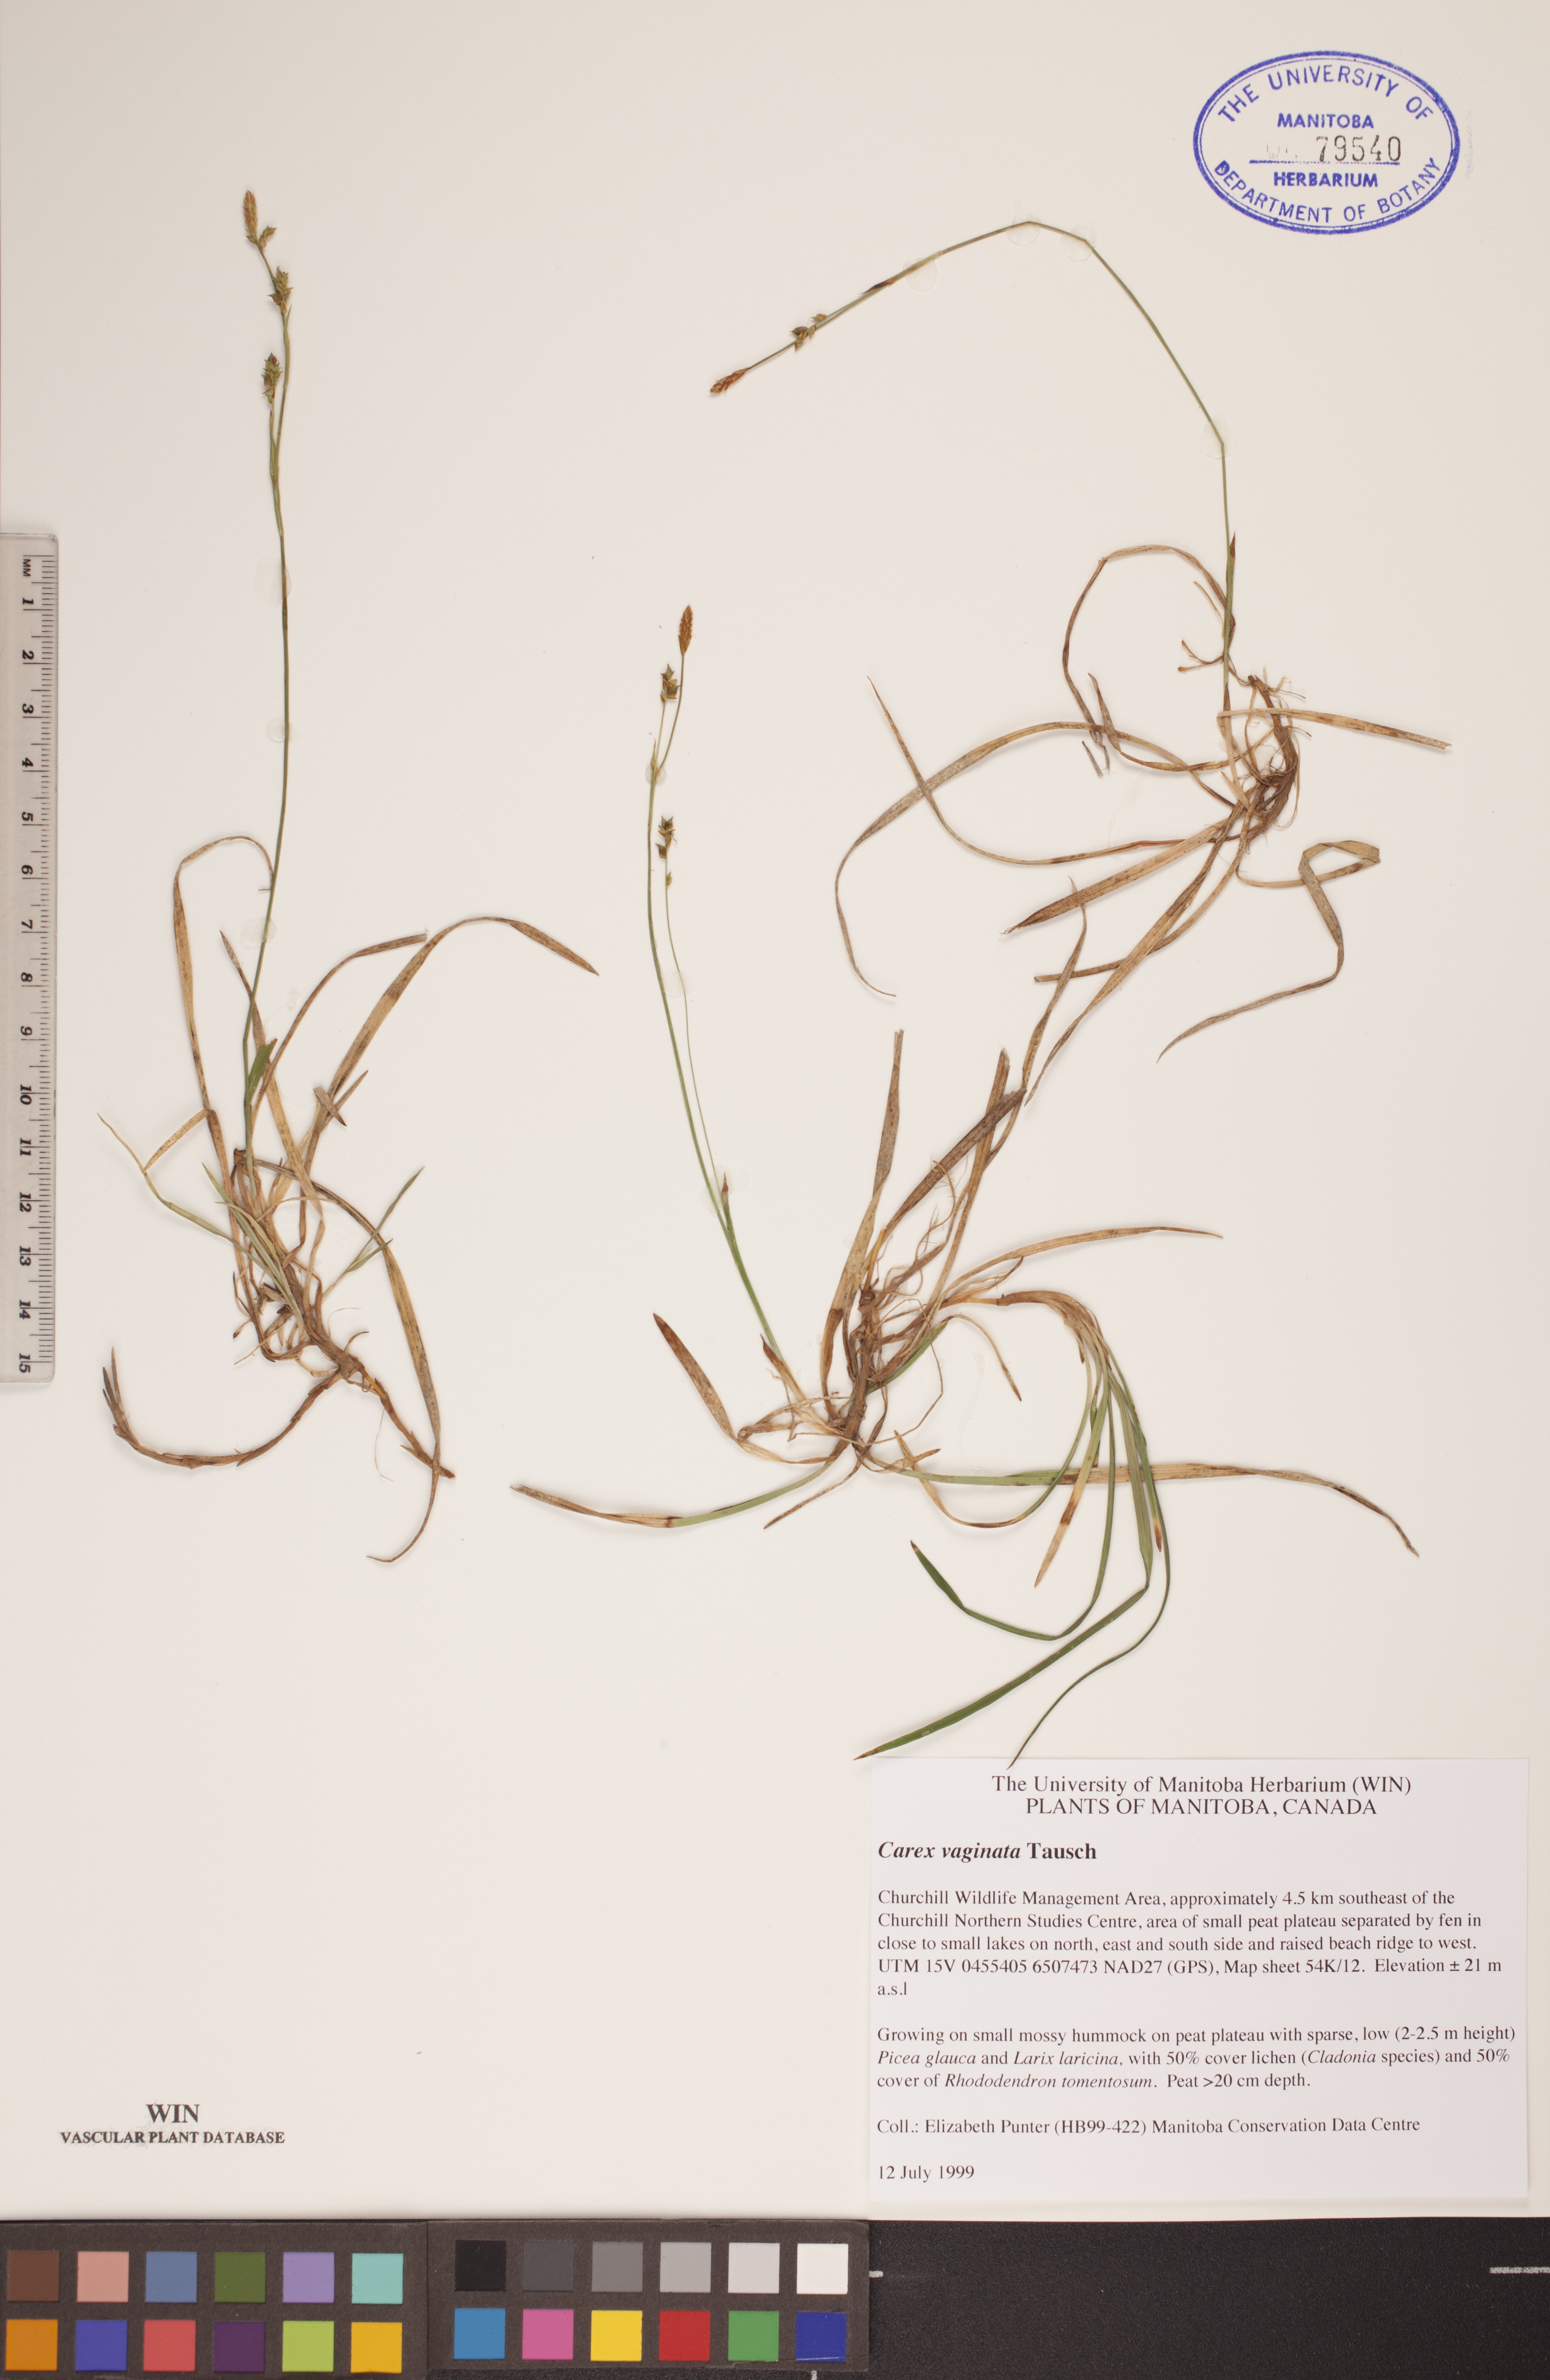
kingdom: Plantae
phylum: Tracheophyta
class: Liliopsida
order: Poales
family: Cyperaceae
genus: Carex
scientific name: Carex vaginata
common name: Sheathed sedge
